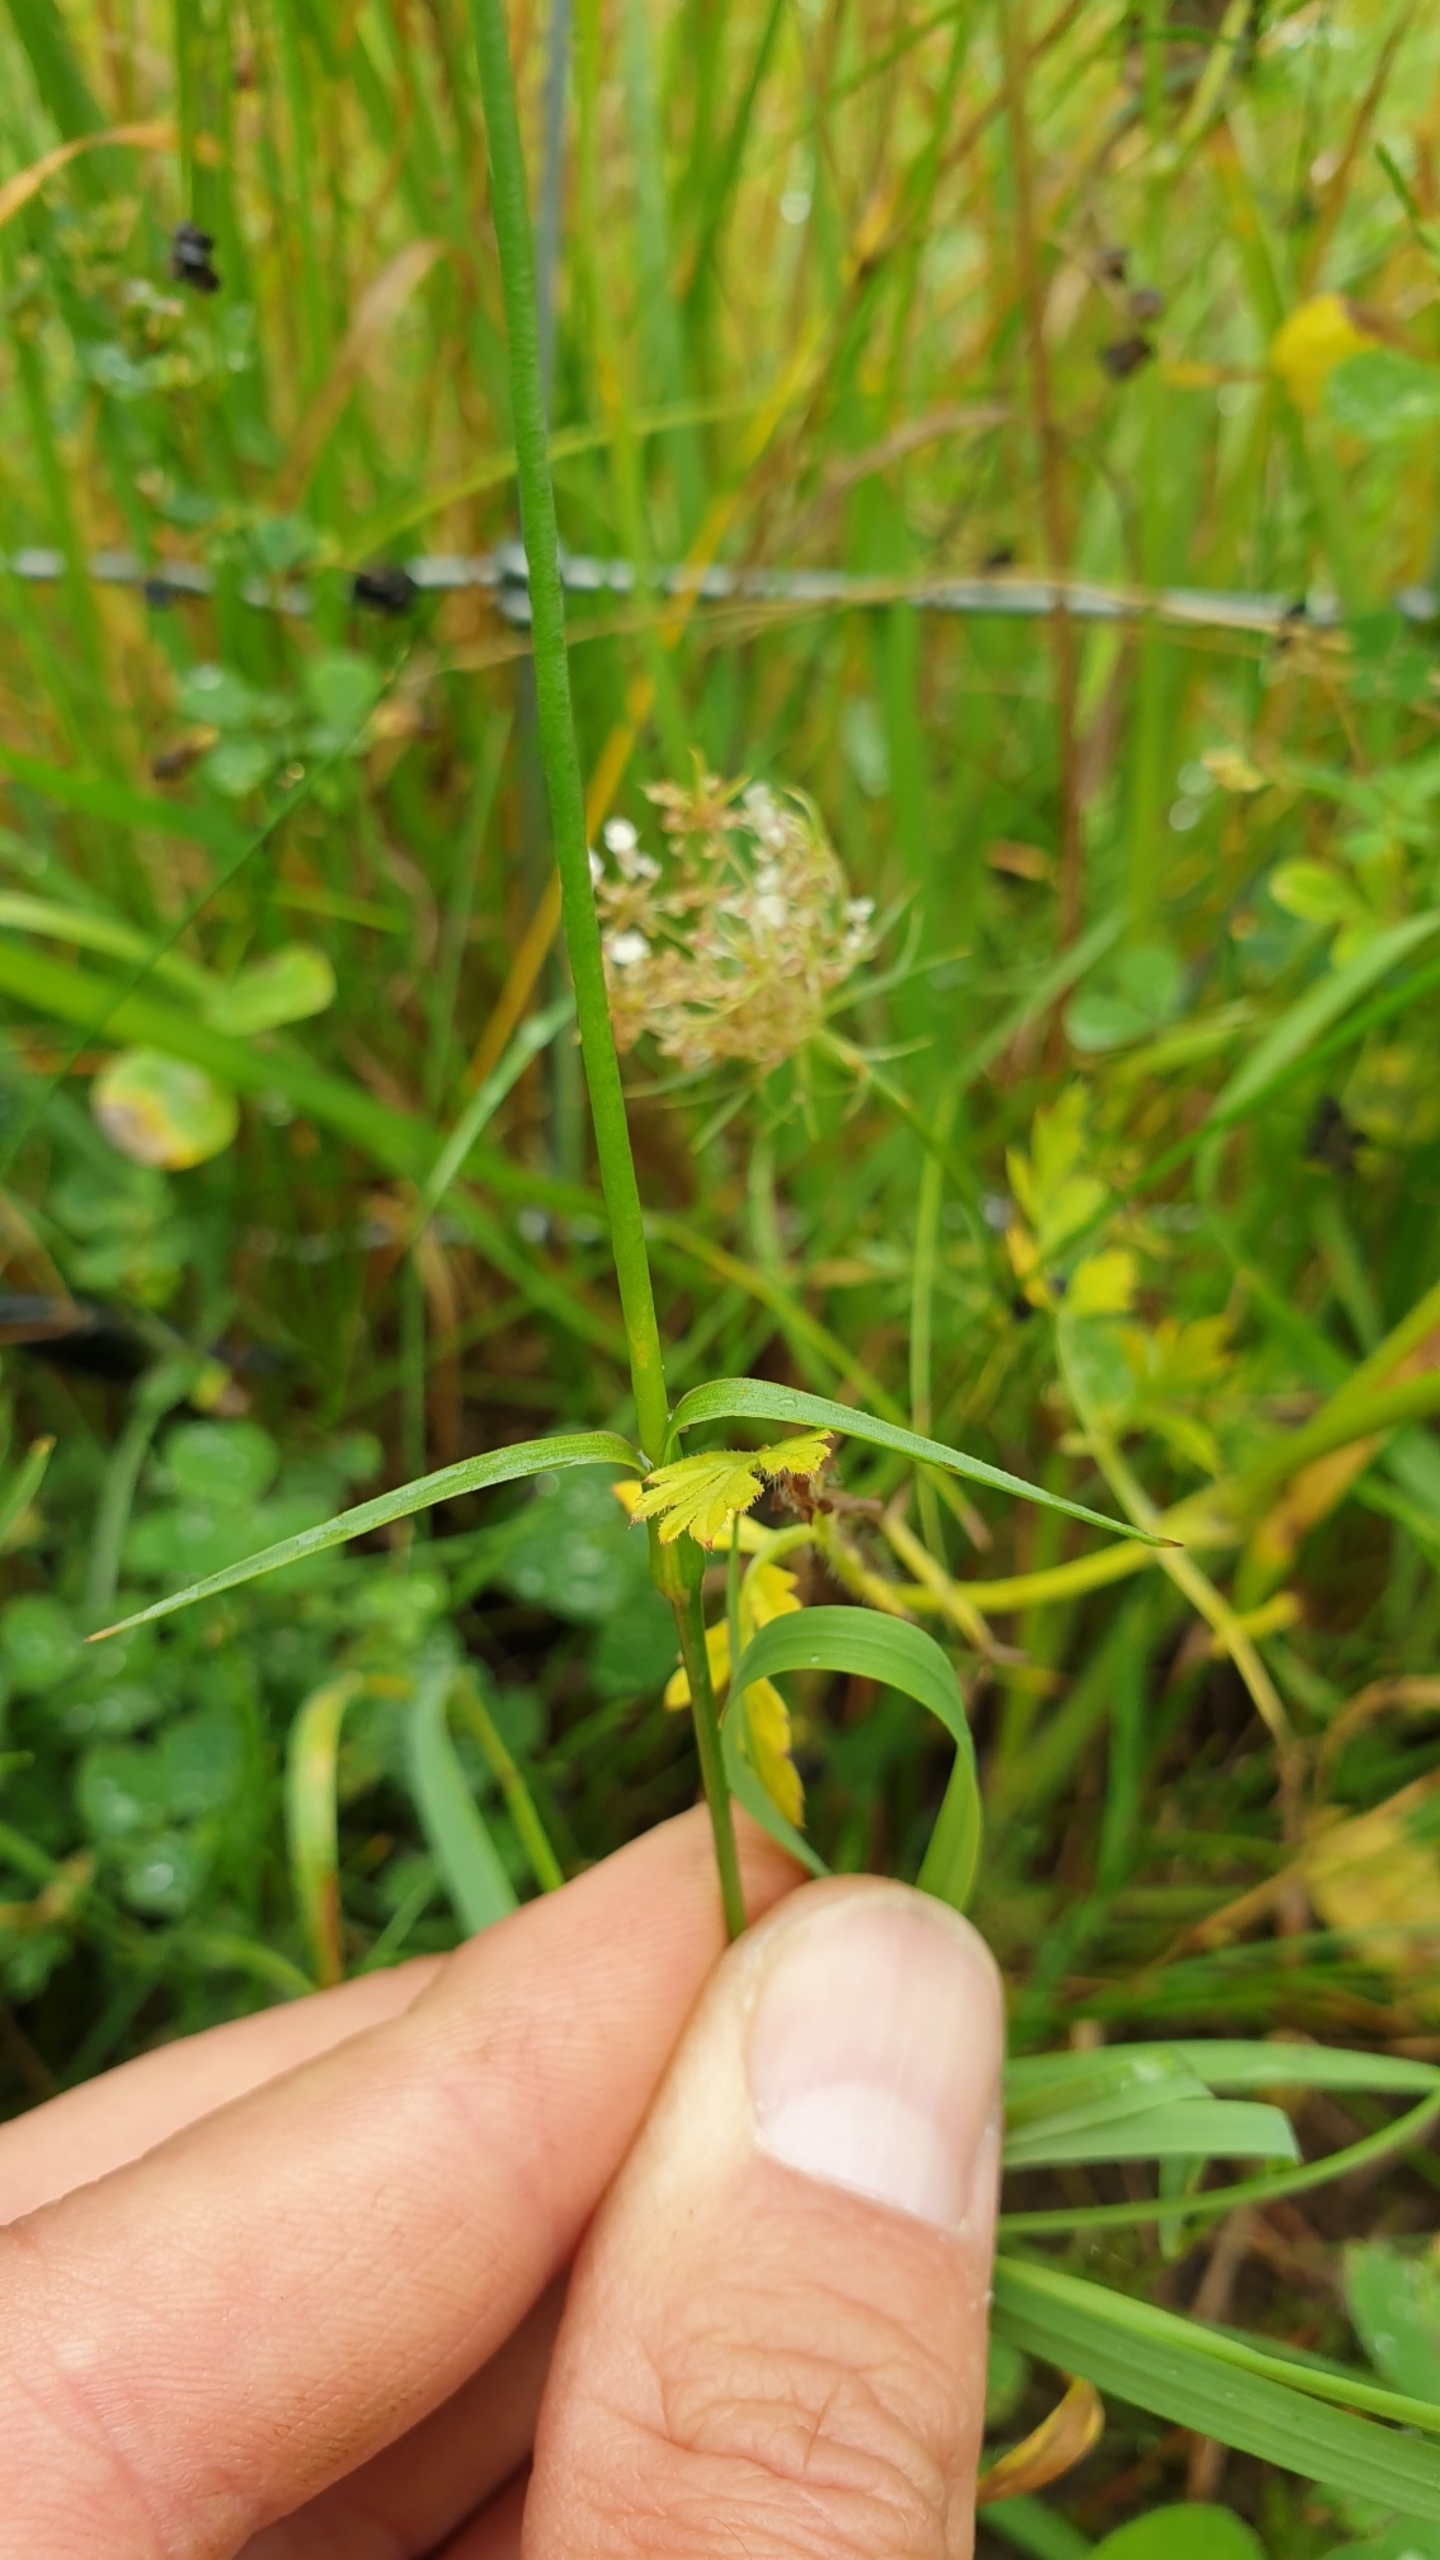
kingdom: Plantae
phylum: Tracheophyta
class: Magnoliopsida
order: Caryophyllales
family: Caryophyllaceae
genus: Dianthus
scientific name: Dianthus carthusianorum
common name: Karteuser-nellike
